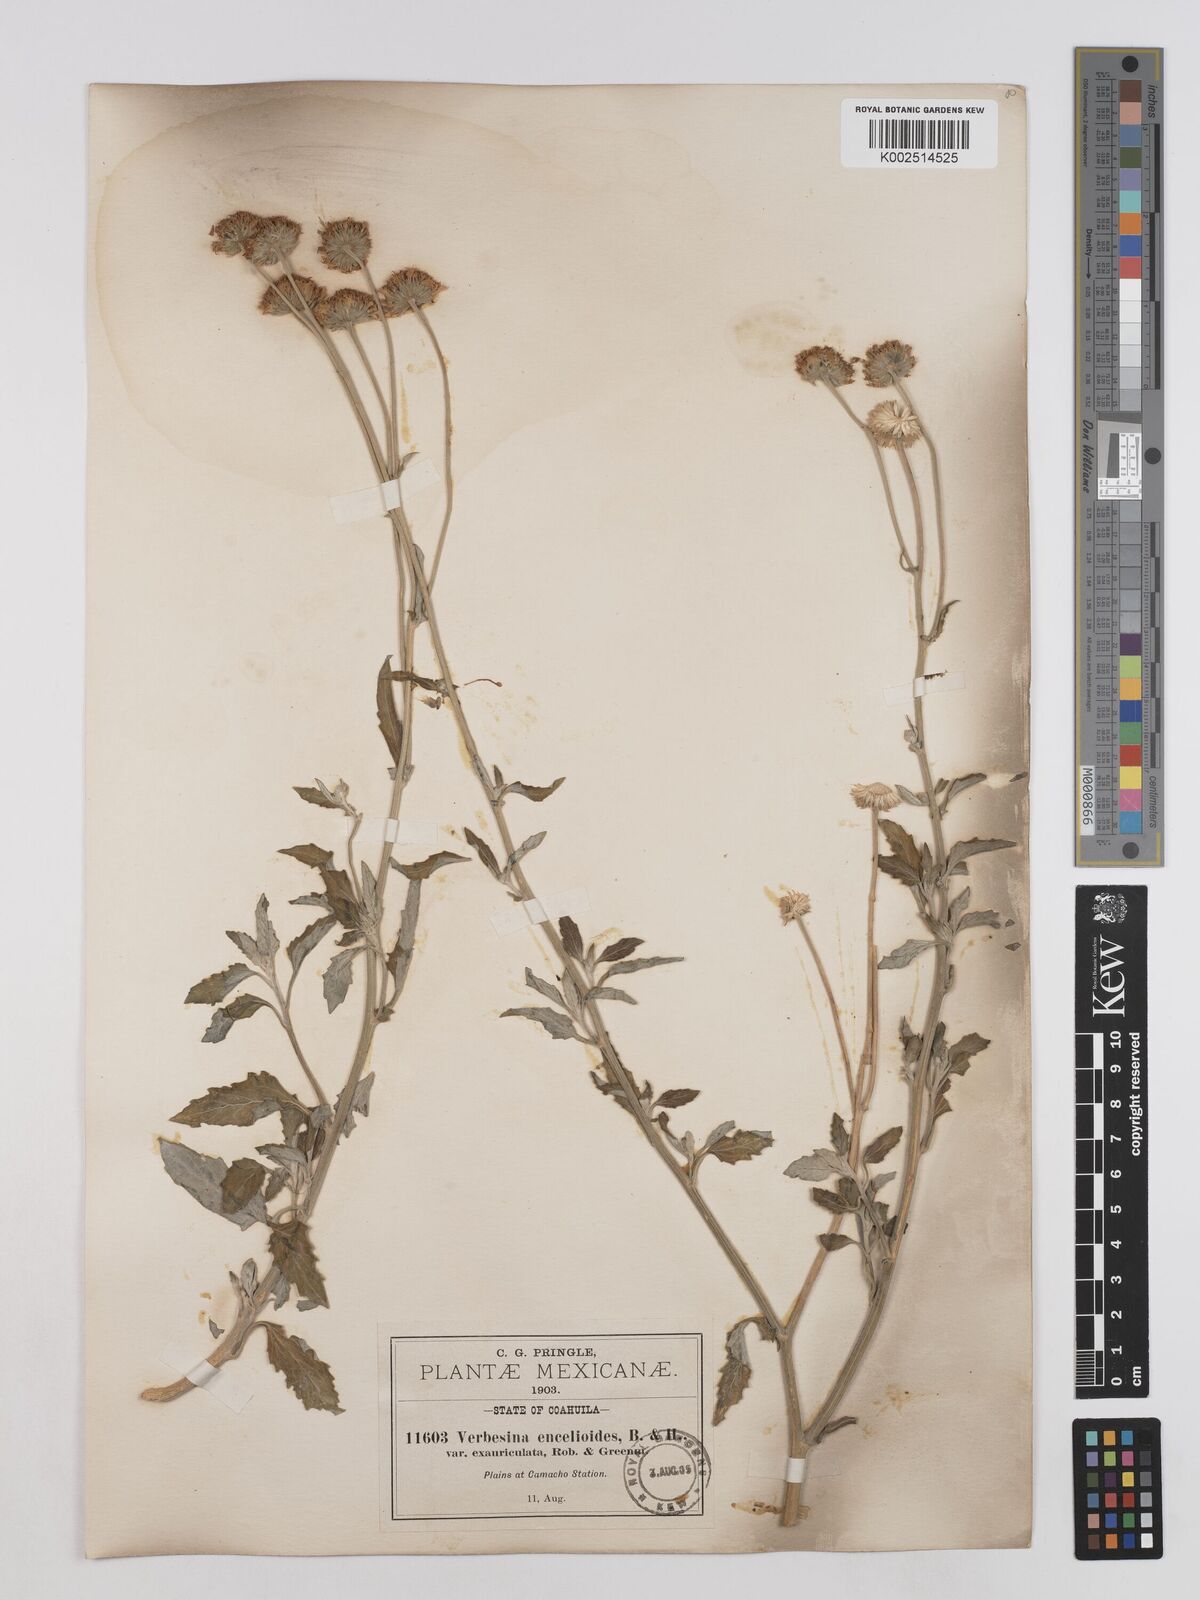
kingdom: Plantae
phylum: Tracheophyta
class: Magnoliopsida
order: Asterales
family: Asteraceae
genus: Verbesina
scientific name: Verbesina encelioides
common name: Golden crownbeard
